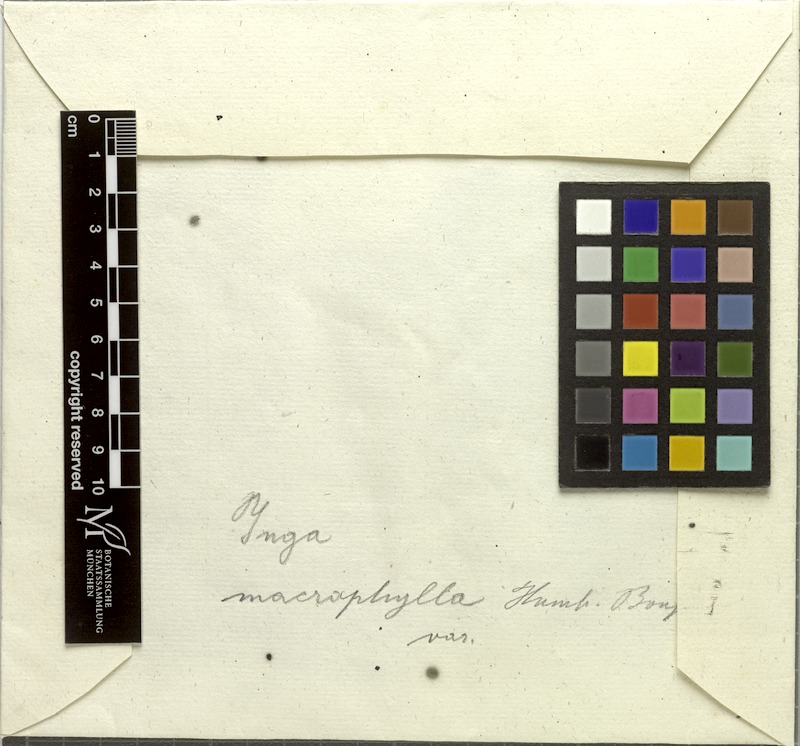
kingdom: Plantae
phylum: Tracheophyta
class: Magnoliopsida
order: Fabales
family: Fabaceae
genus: Inga
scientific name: Inga macrophylla
